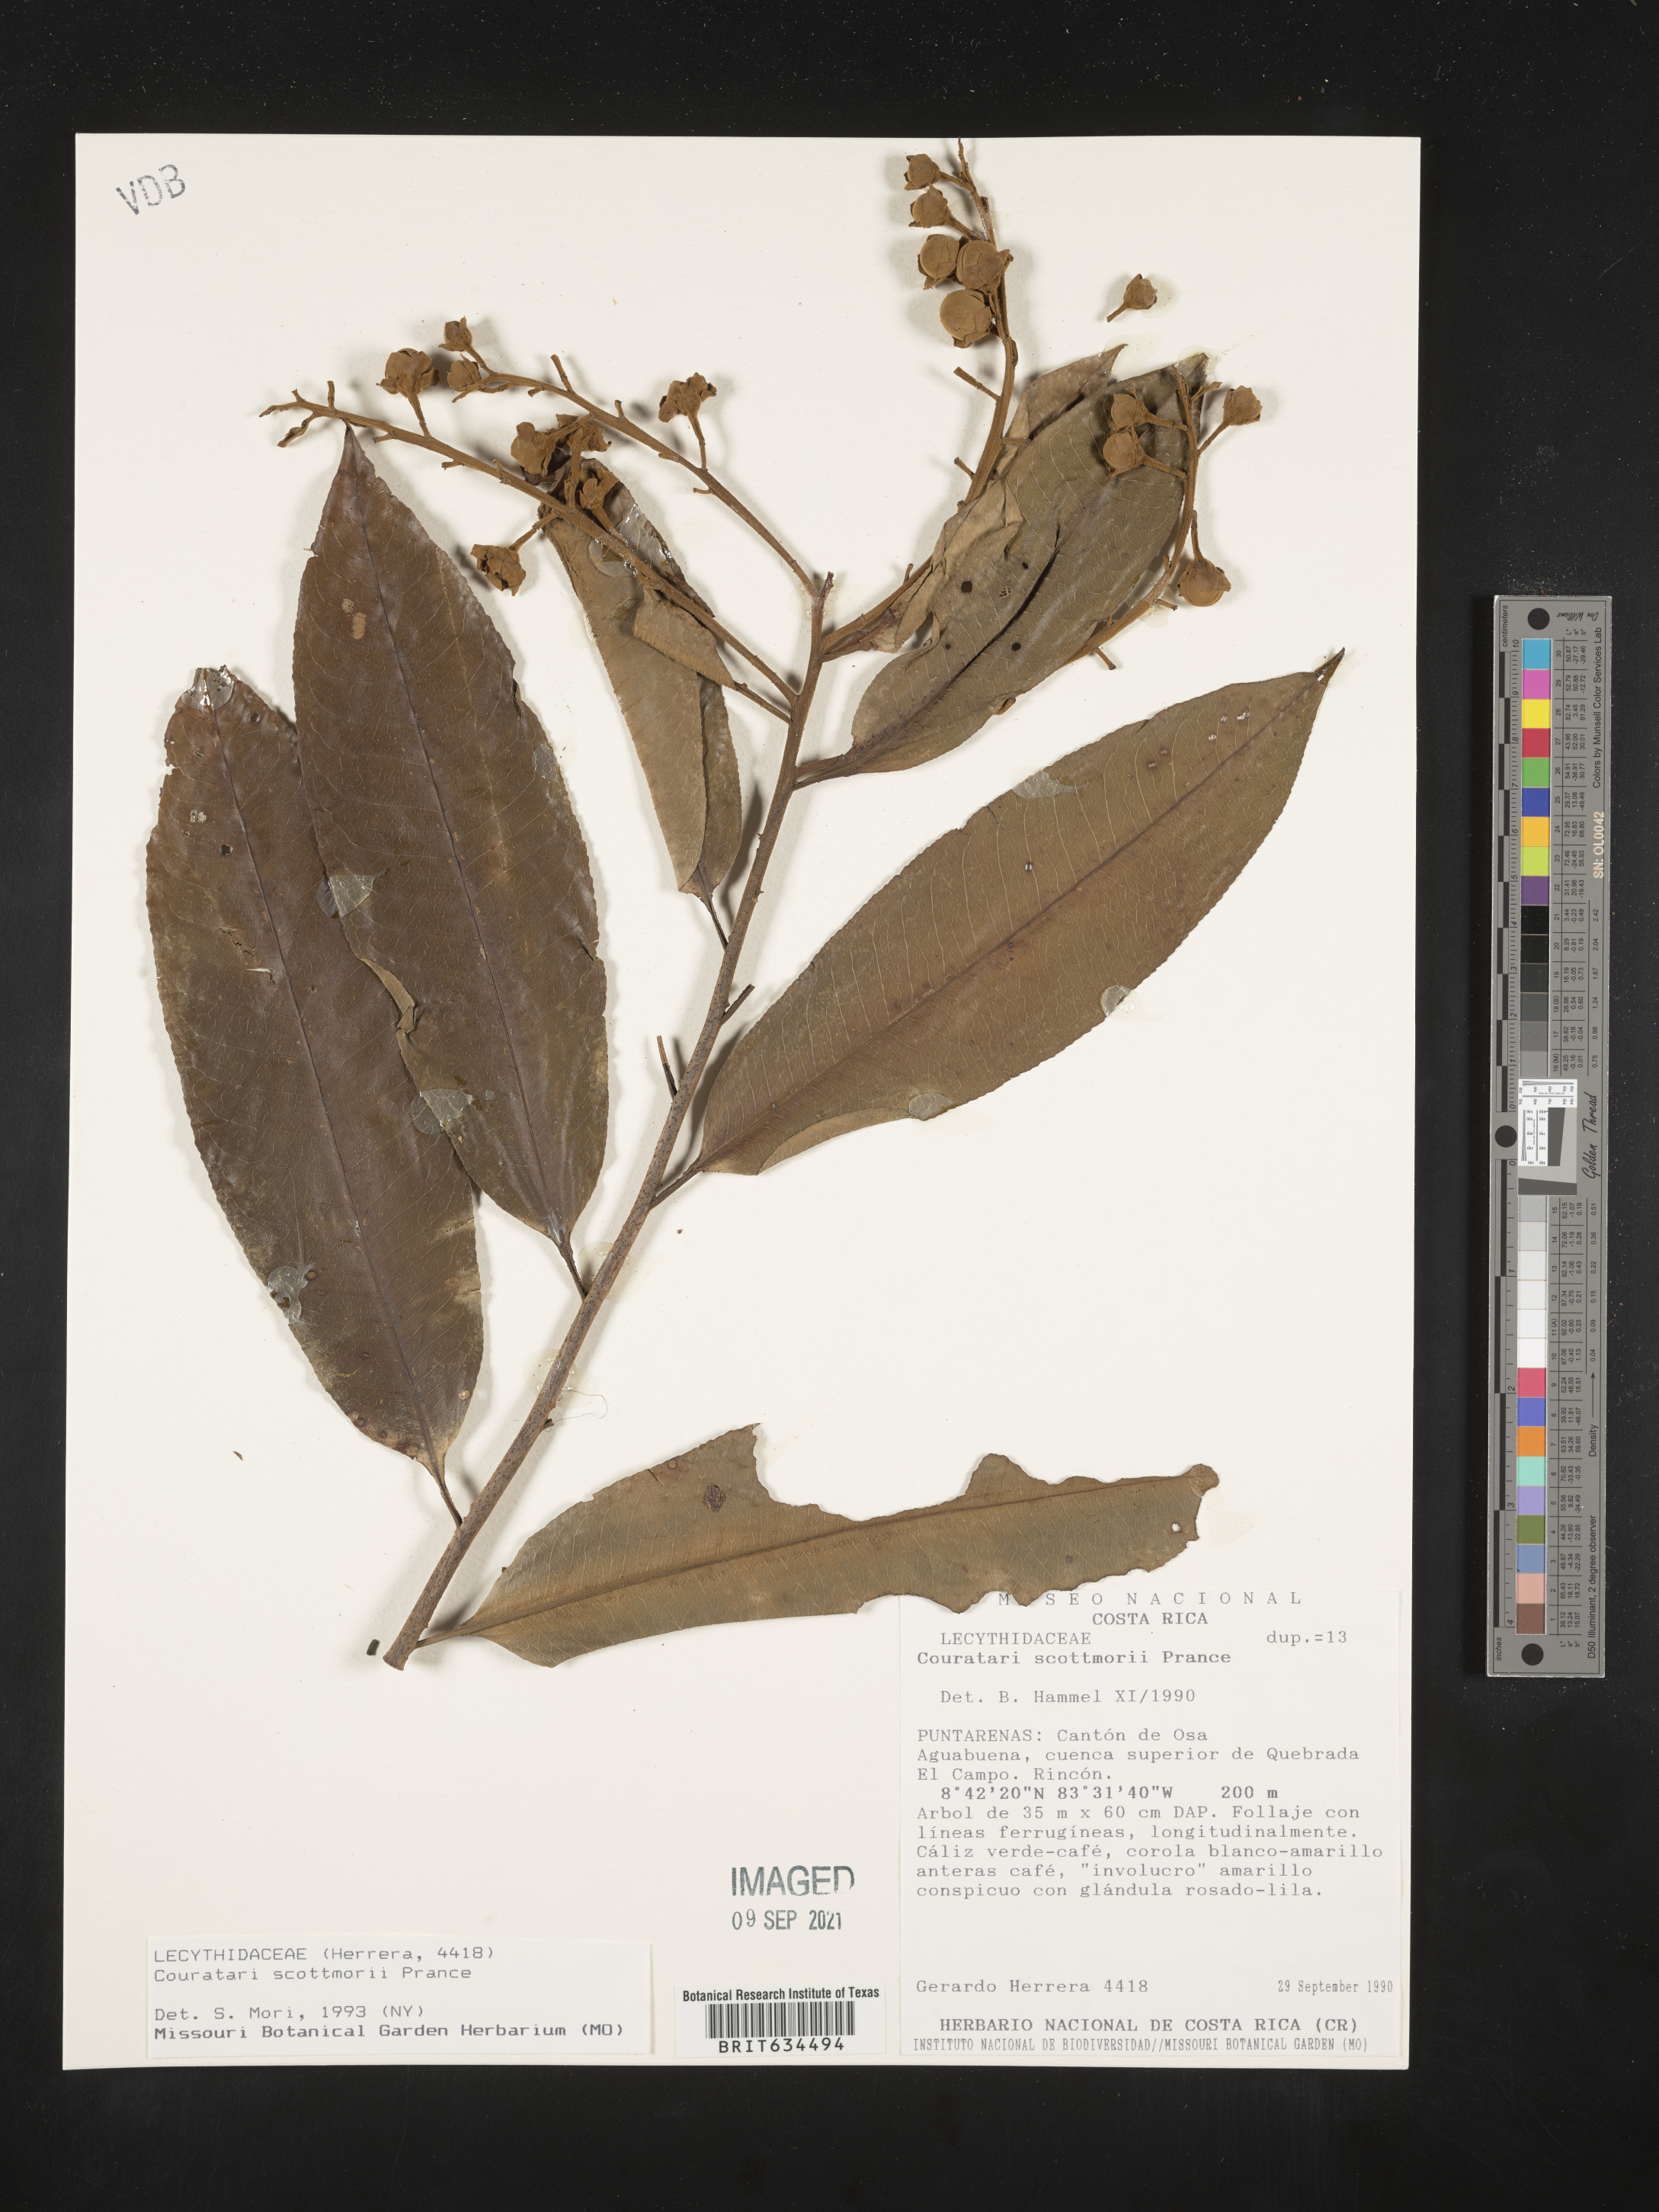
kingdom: Plantae
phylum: Tracheophyta
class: Magnoliopsida
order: Ericales
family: Lecythidaceae
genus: Couratari
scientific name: Couratari
